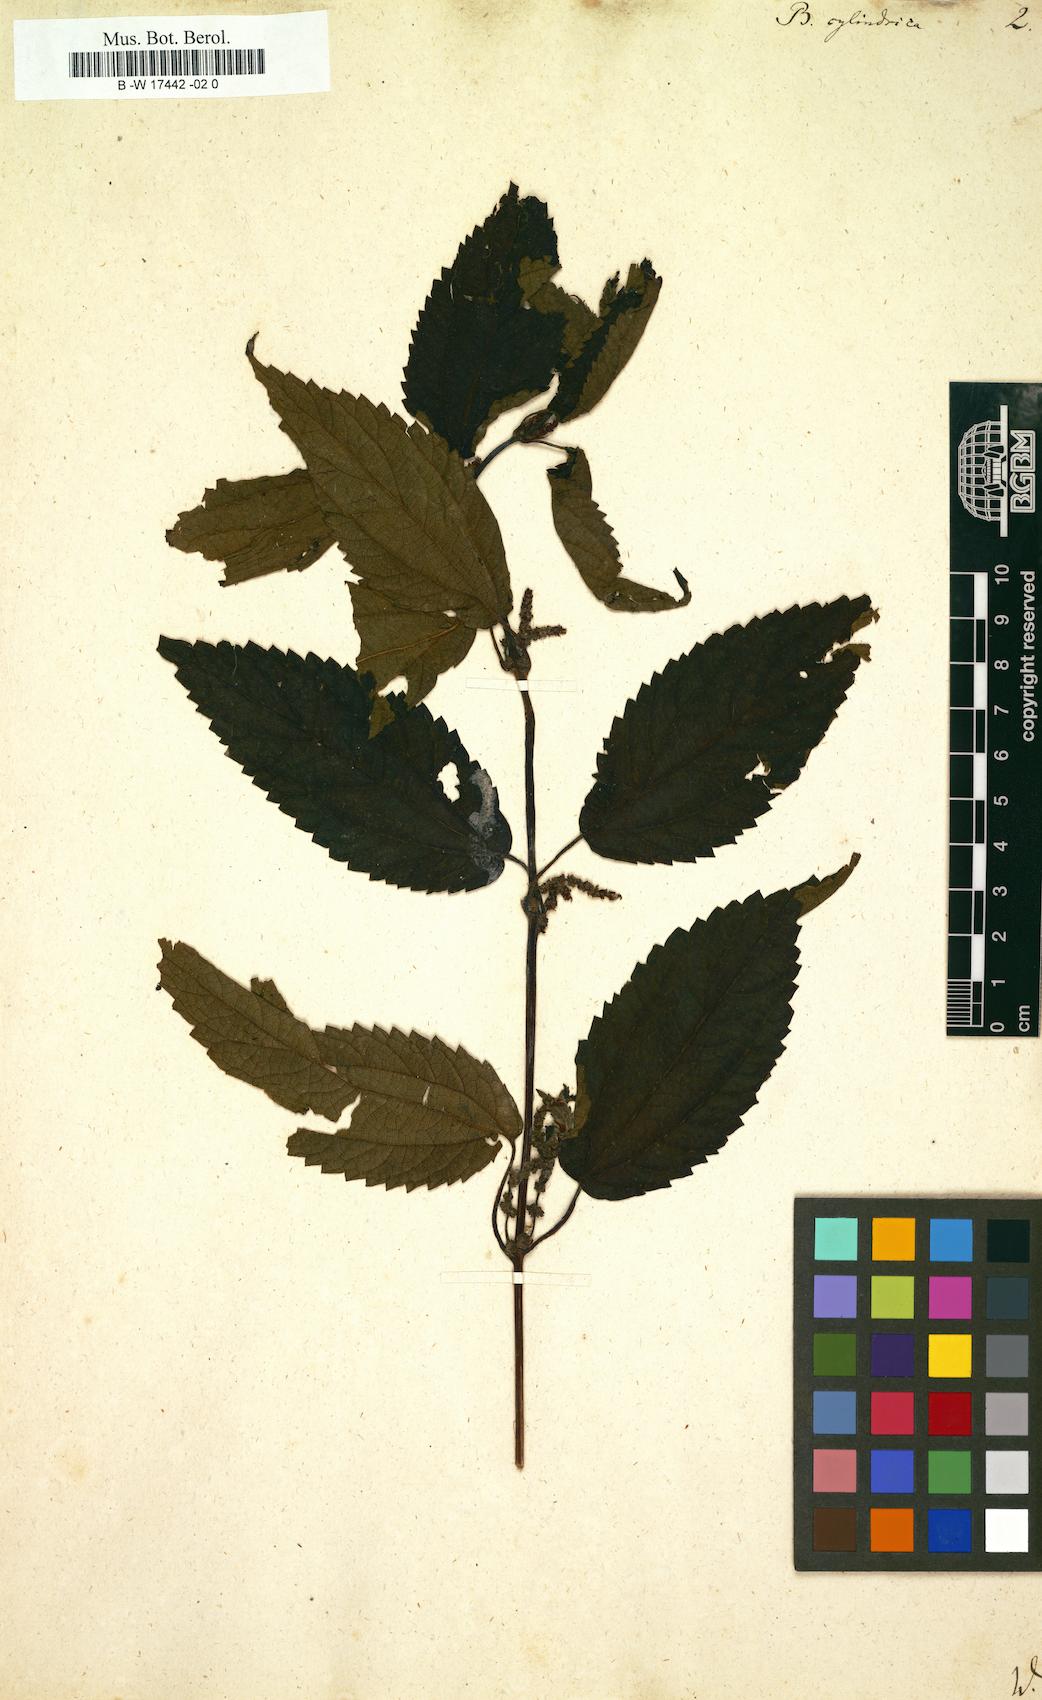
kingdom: Plantae
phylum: Tracheophyta
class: Magnoliopsida
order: Rosales
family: Urticaceae
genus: Boehmeria
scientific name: Boehmeria cylindrica
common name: Bog-hemp
